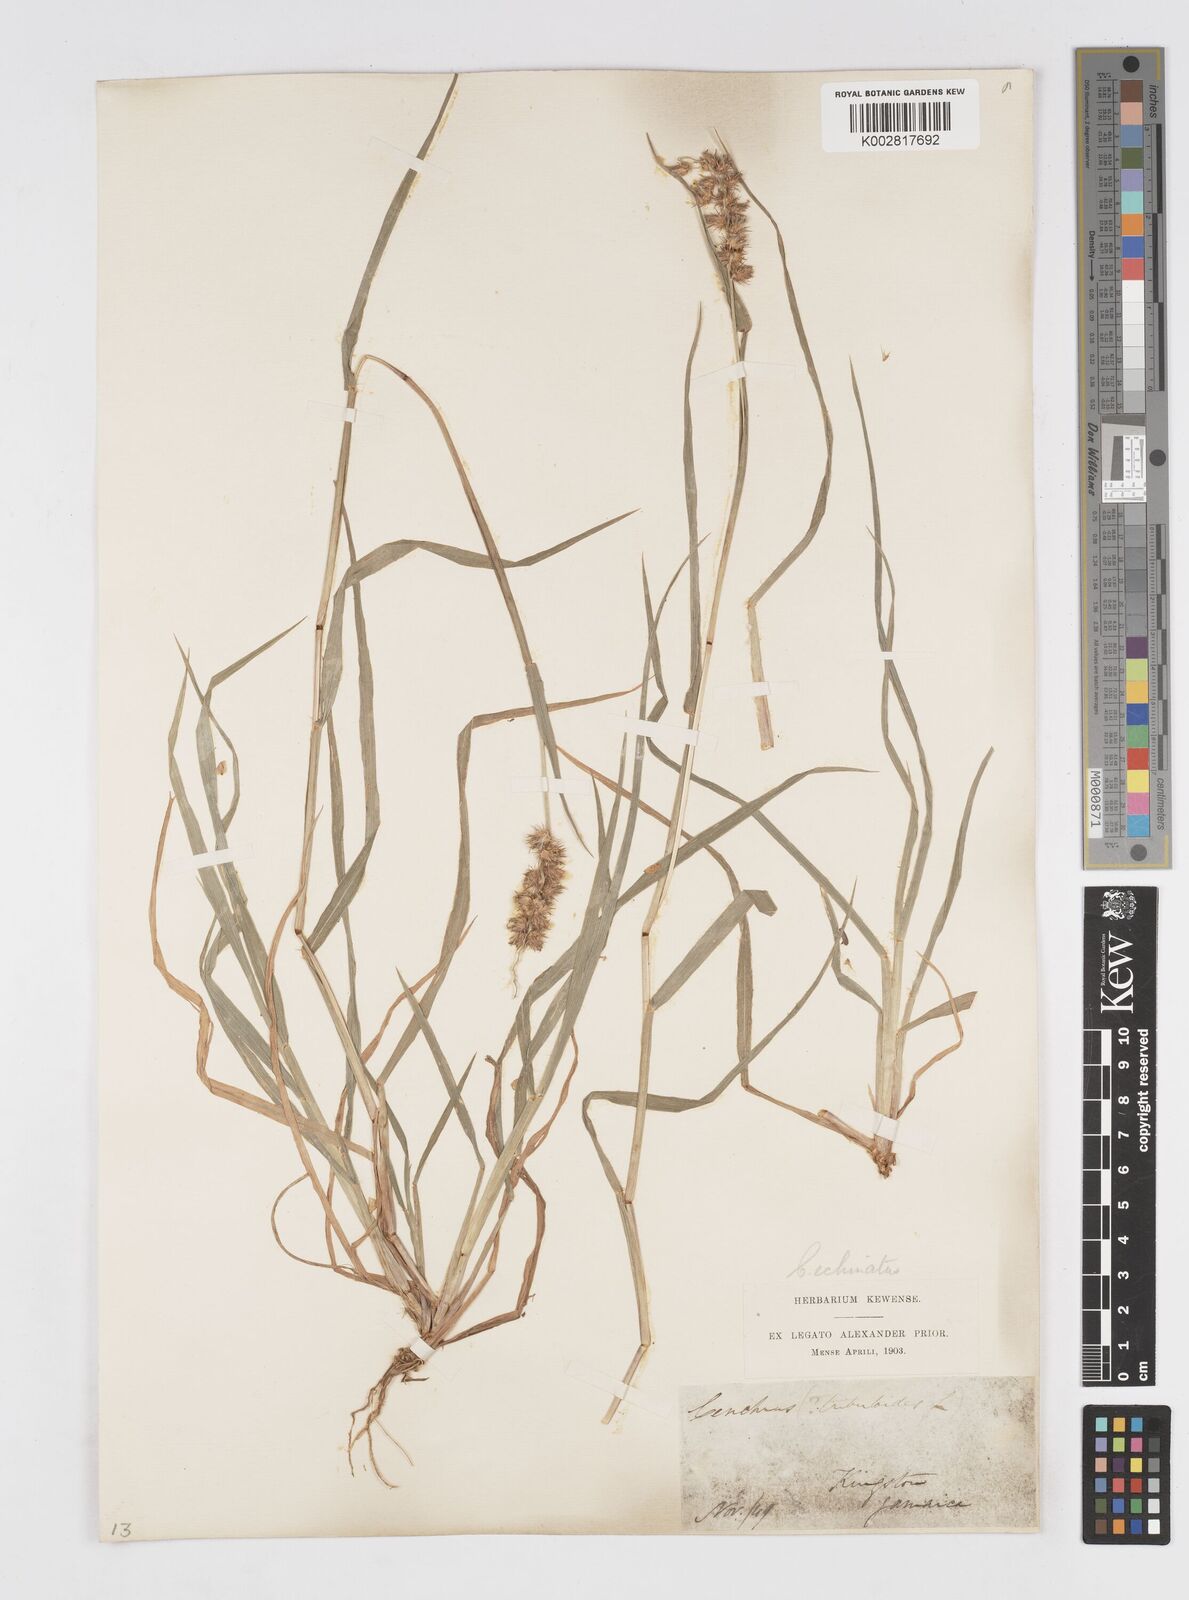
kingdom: Plantae
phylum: Tracheophyta
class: Liliopsida
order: Poales
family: Poaceae
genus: Cenchrus
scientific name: Cenchrus
